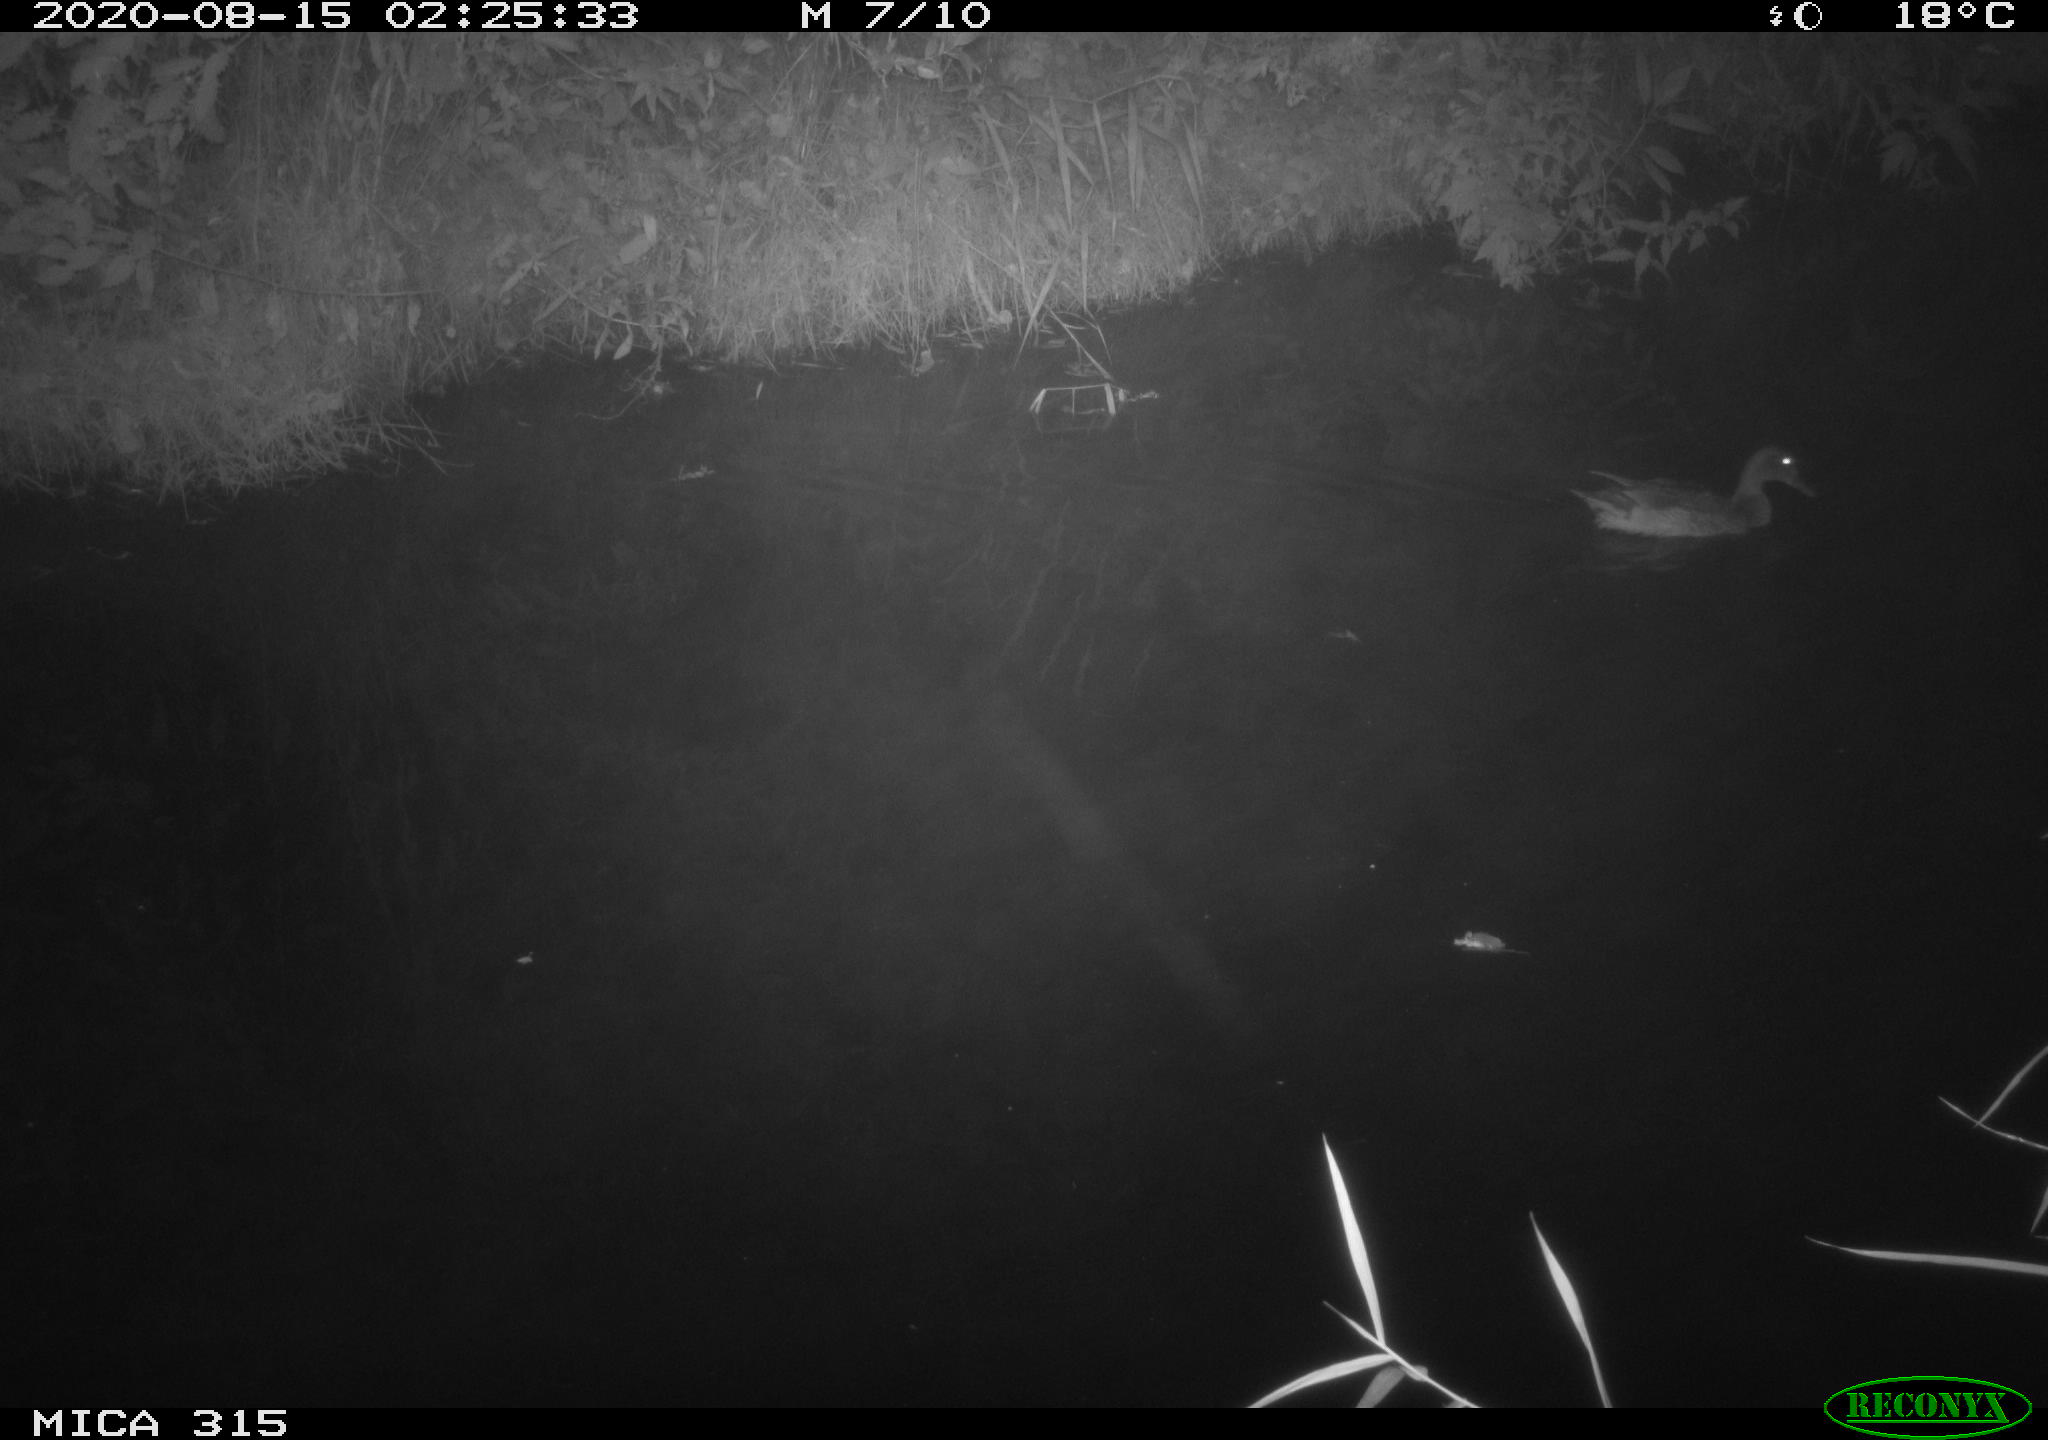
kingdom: Animalia
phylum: Chordata
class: Aves
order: Anseriformes
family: Anatidae
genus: Anas
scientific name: Anas platyrhynchos
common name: Mallard
